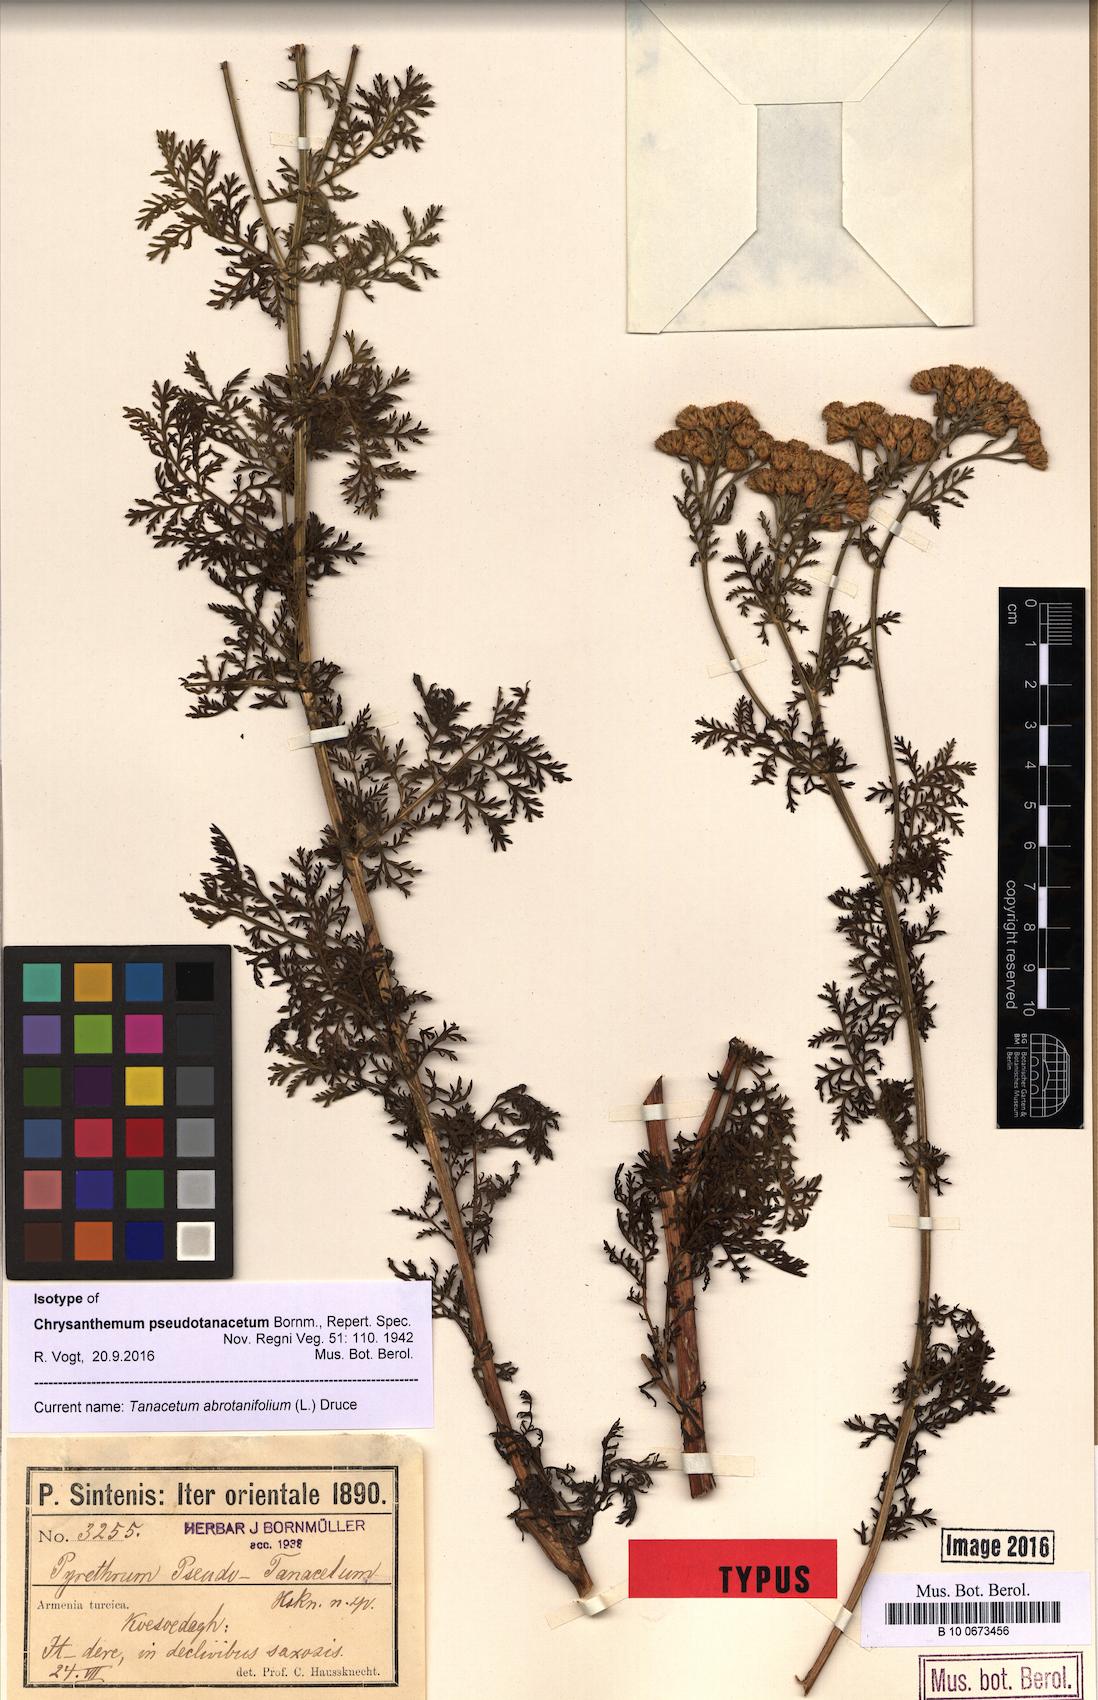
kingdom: Plantae
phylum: Tracheophyta
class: Magnoliopsida
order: Asterales
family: Asteraceae
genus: Tanacetum
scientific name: Tanacetum abrotanifolium
